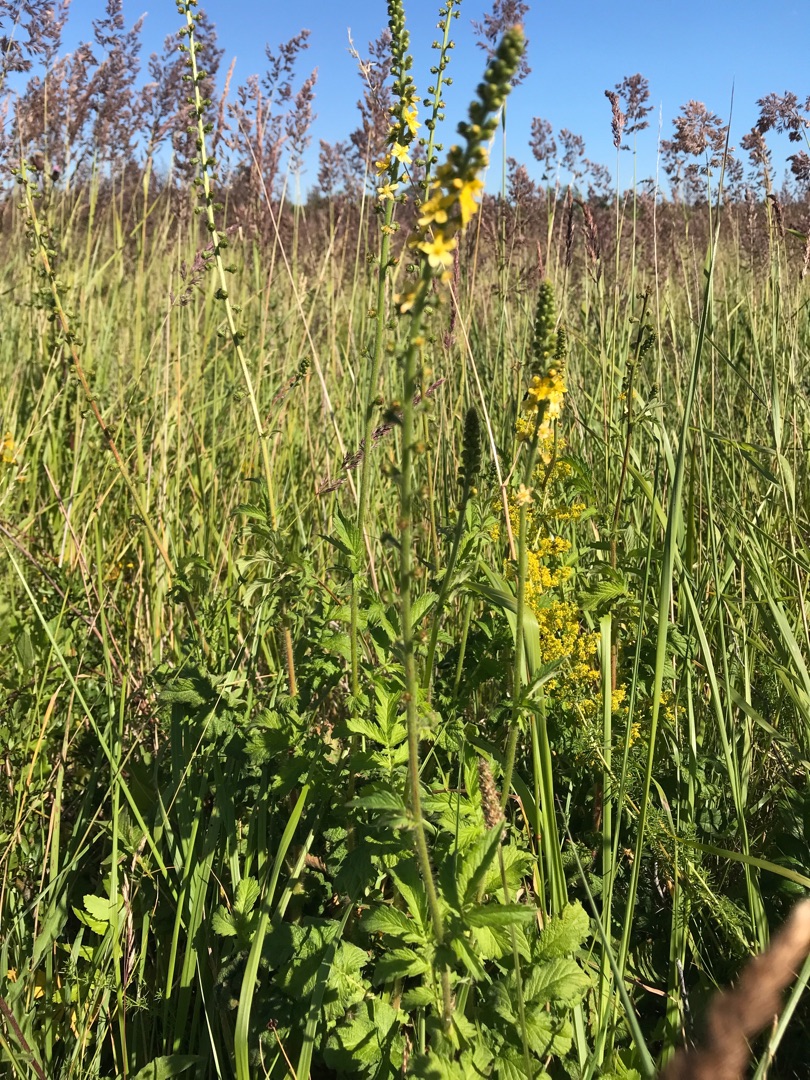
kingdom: Plantae
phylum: Tracheophyta
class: Magnoliopsida
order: Rosales
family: Rosaceae
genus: Agrimonia
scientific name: Agrimonia eupatoria
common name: Almindelig agermåne
